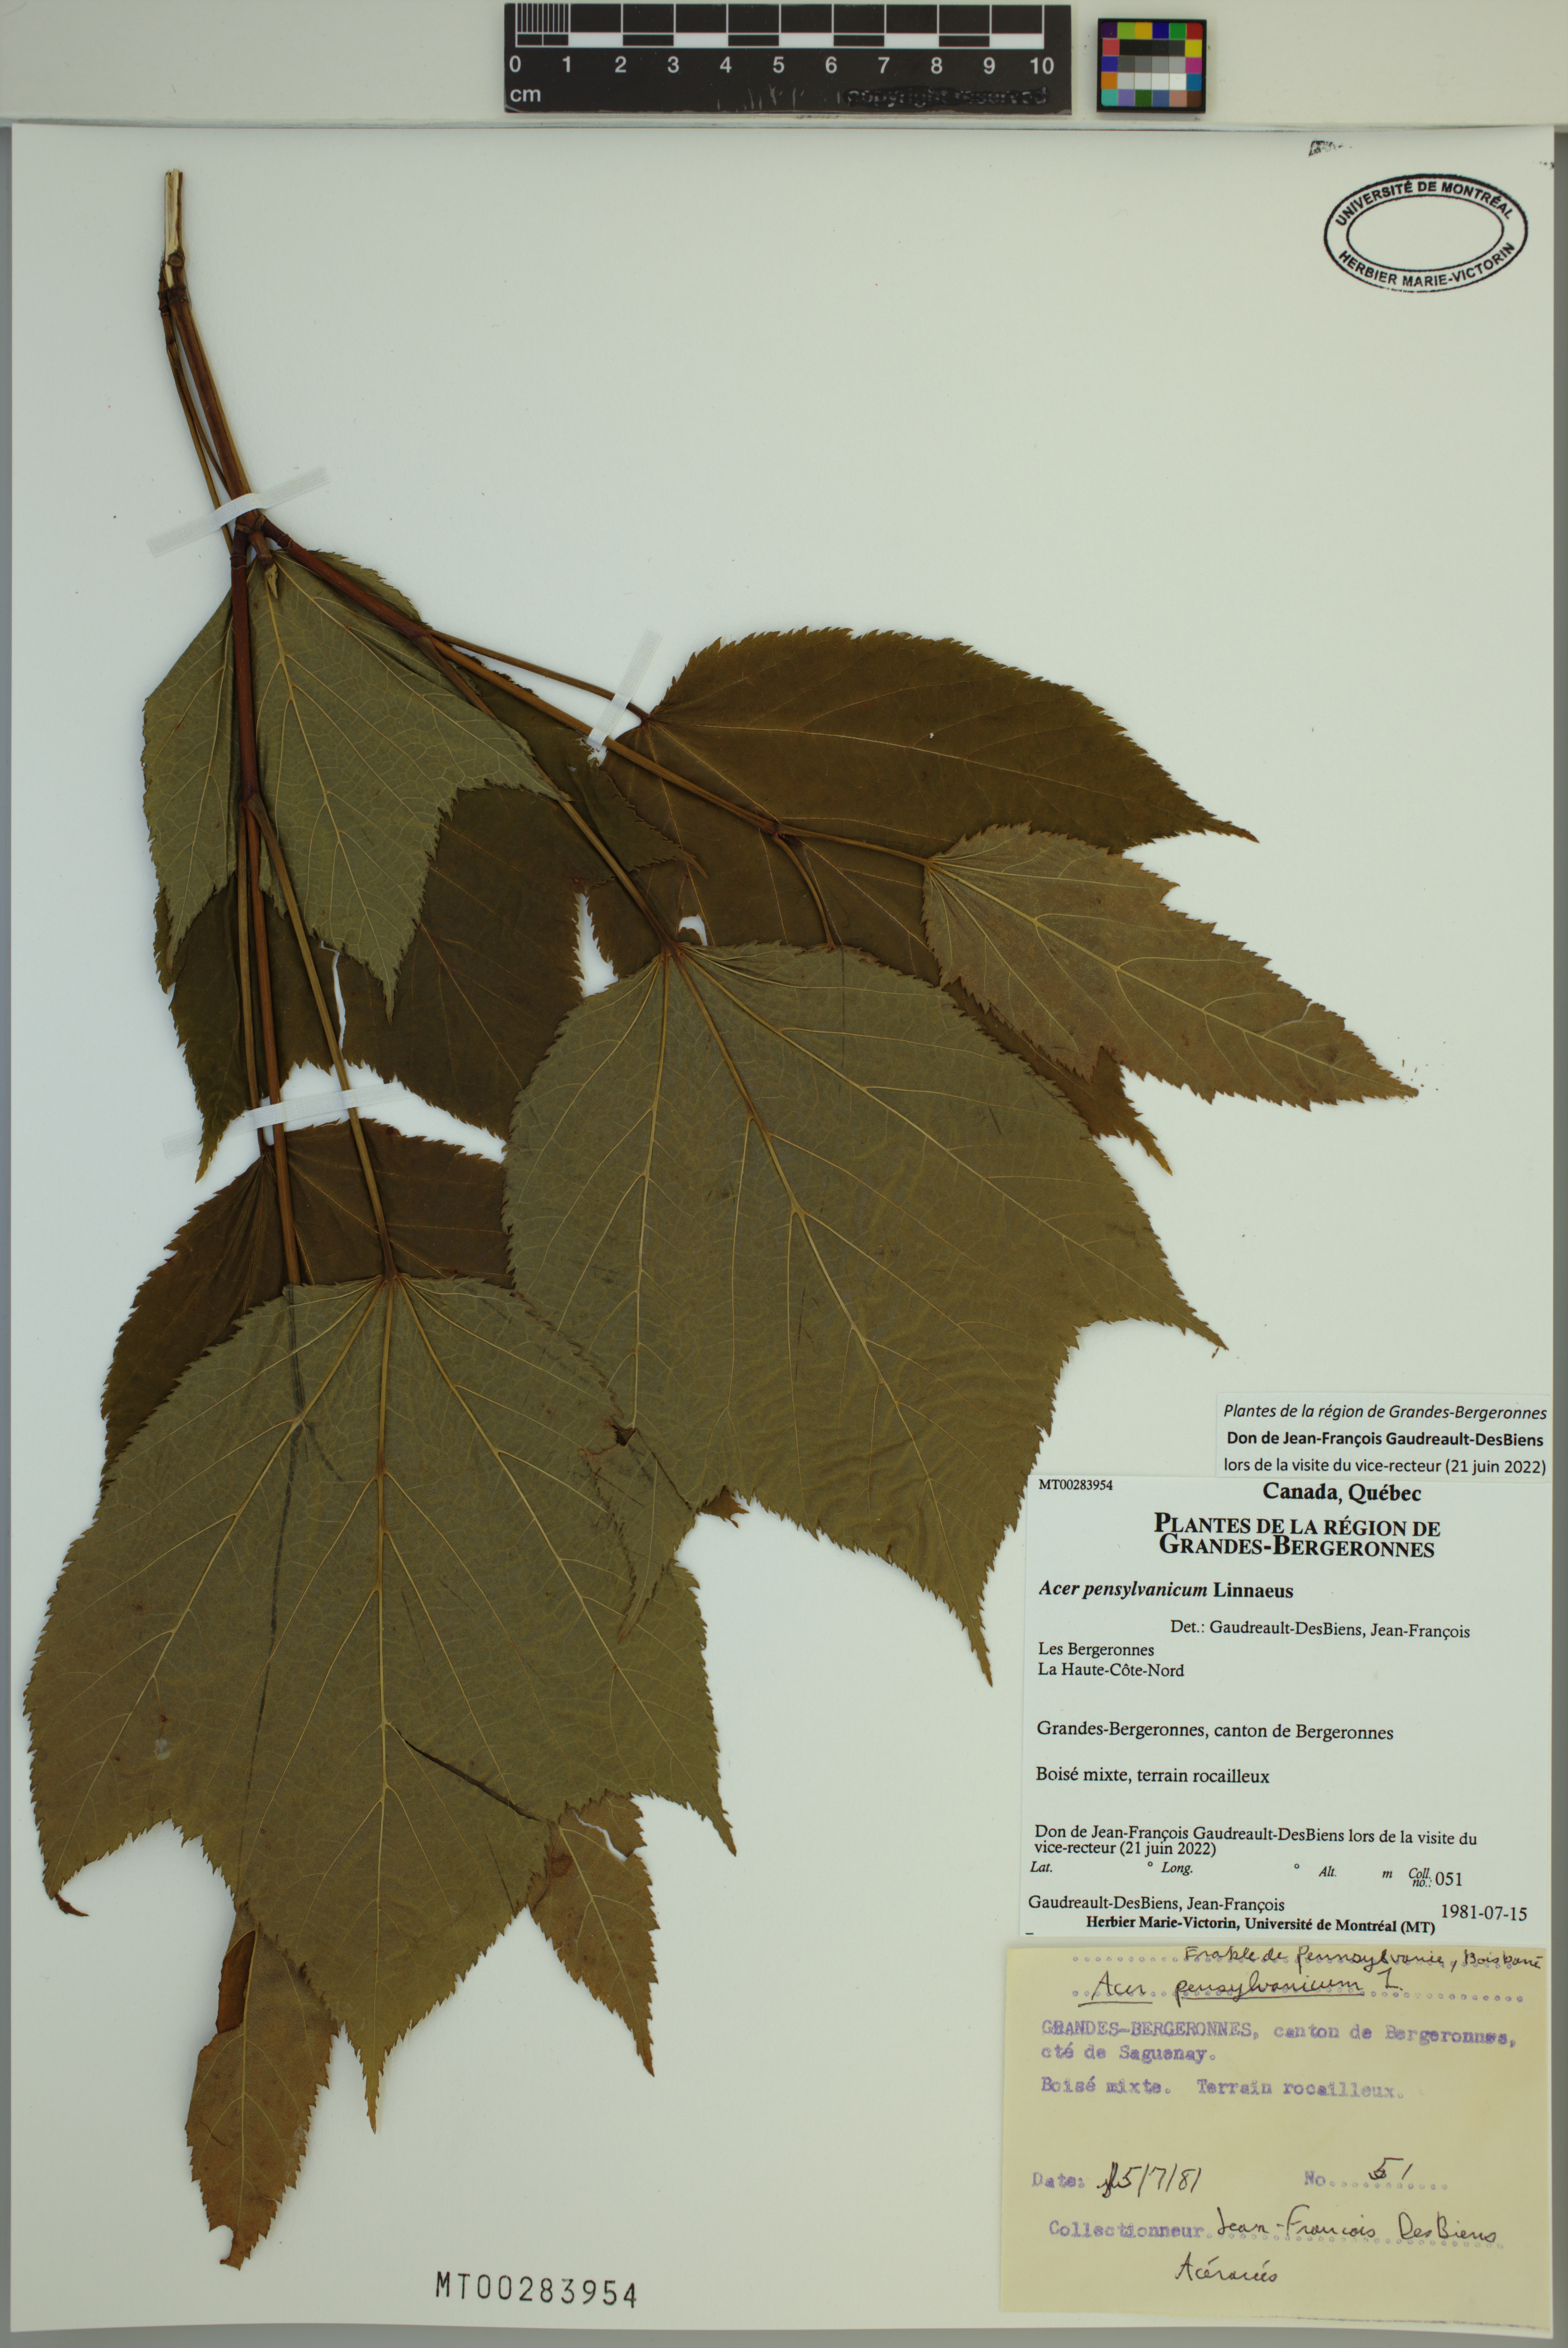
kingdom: Plantae
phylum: Tracheophyta
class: Magnoliopsida
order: Sapindales
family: Sapindaceae
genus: Acer
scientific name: Acer pensylvanicum
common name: Moosewood
